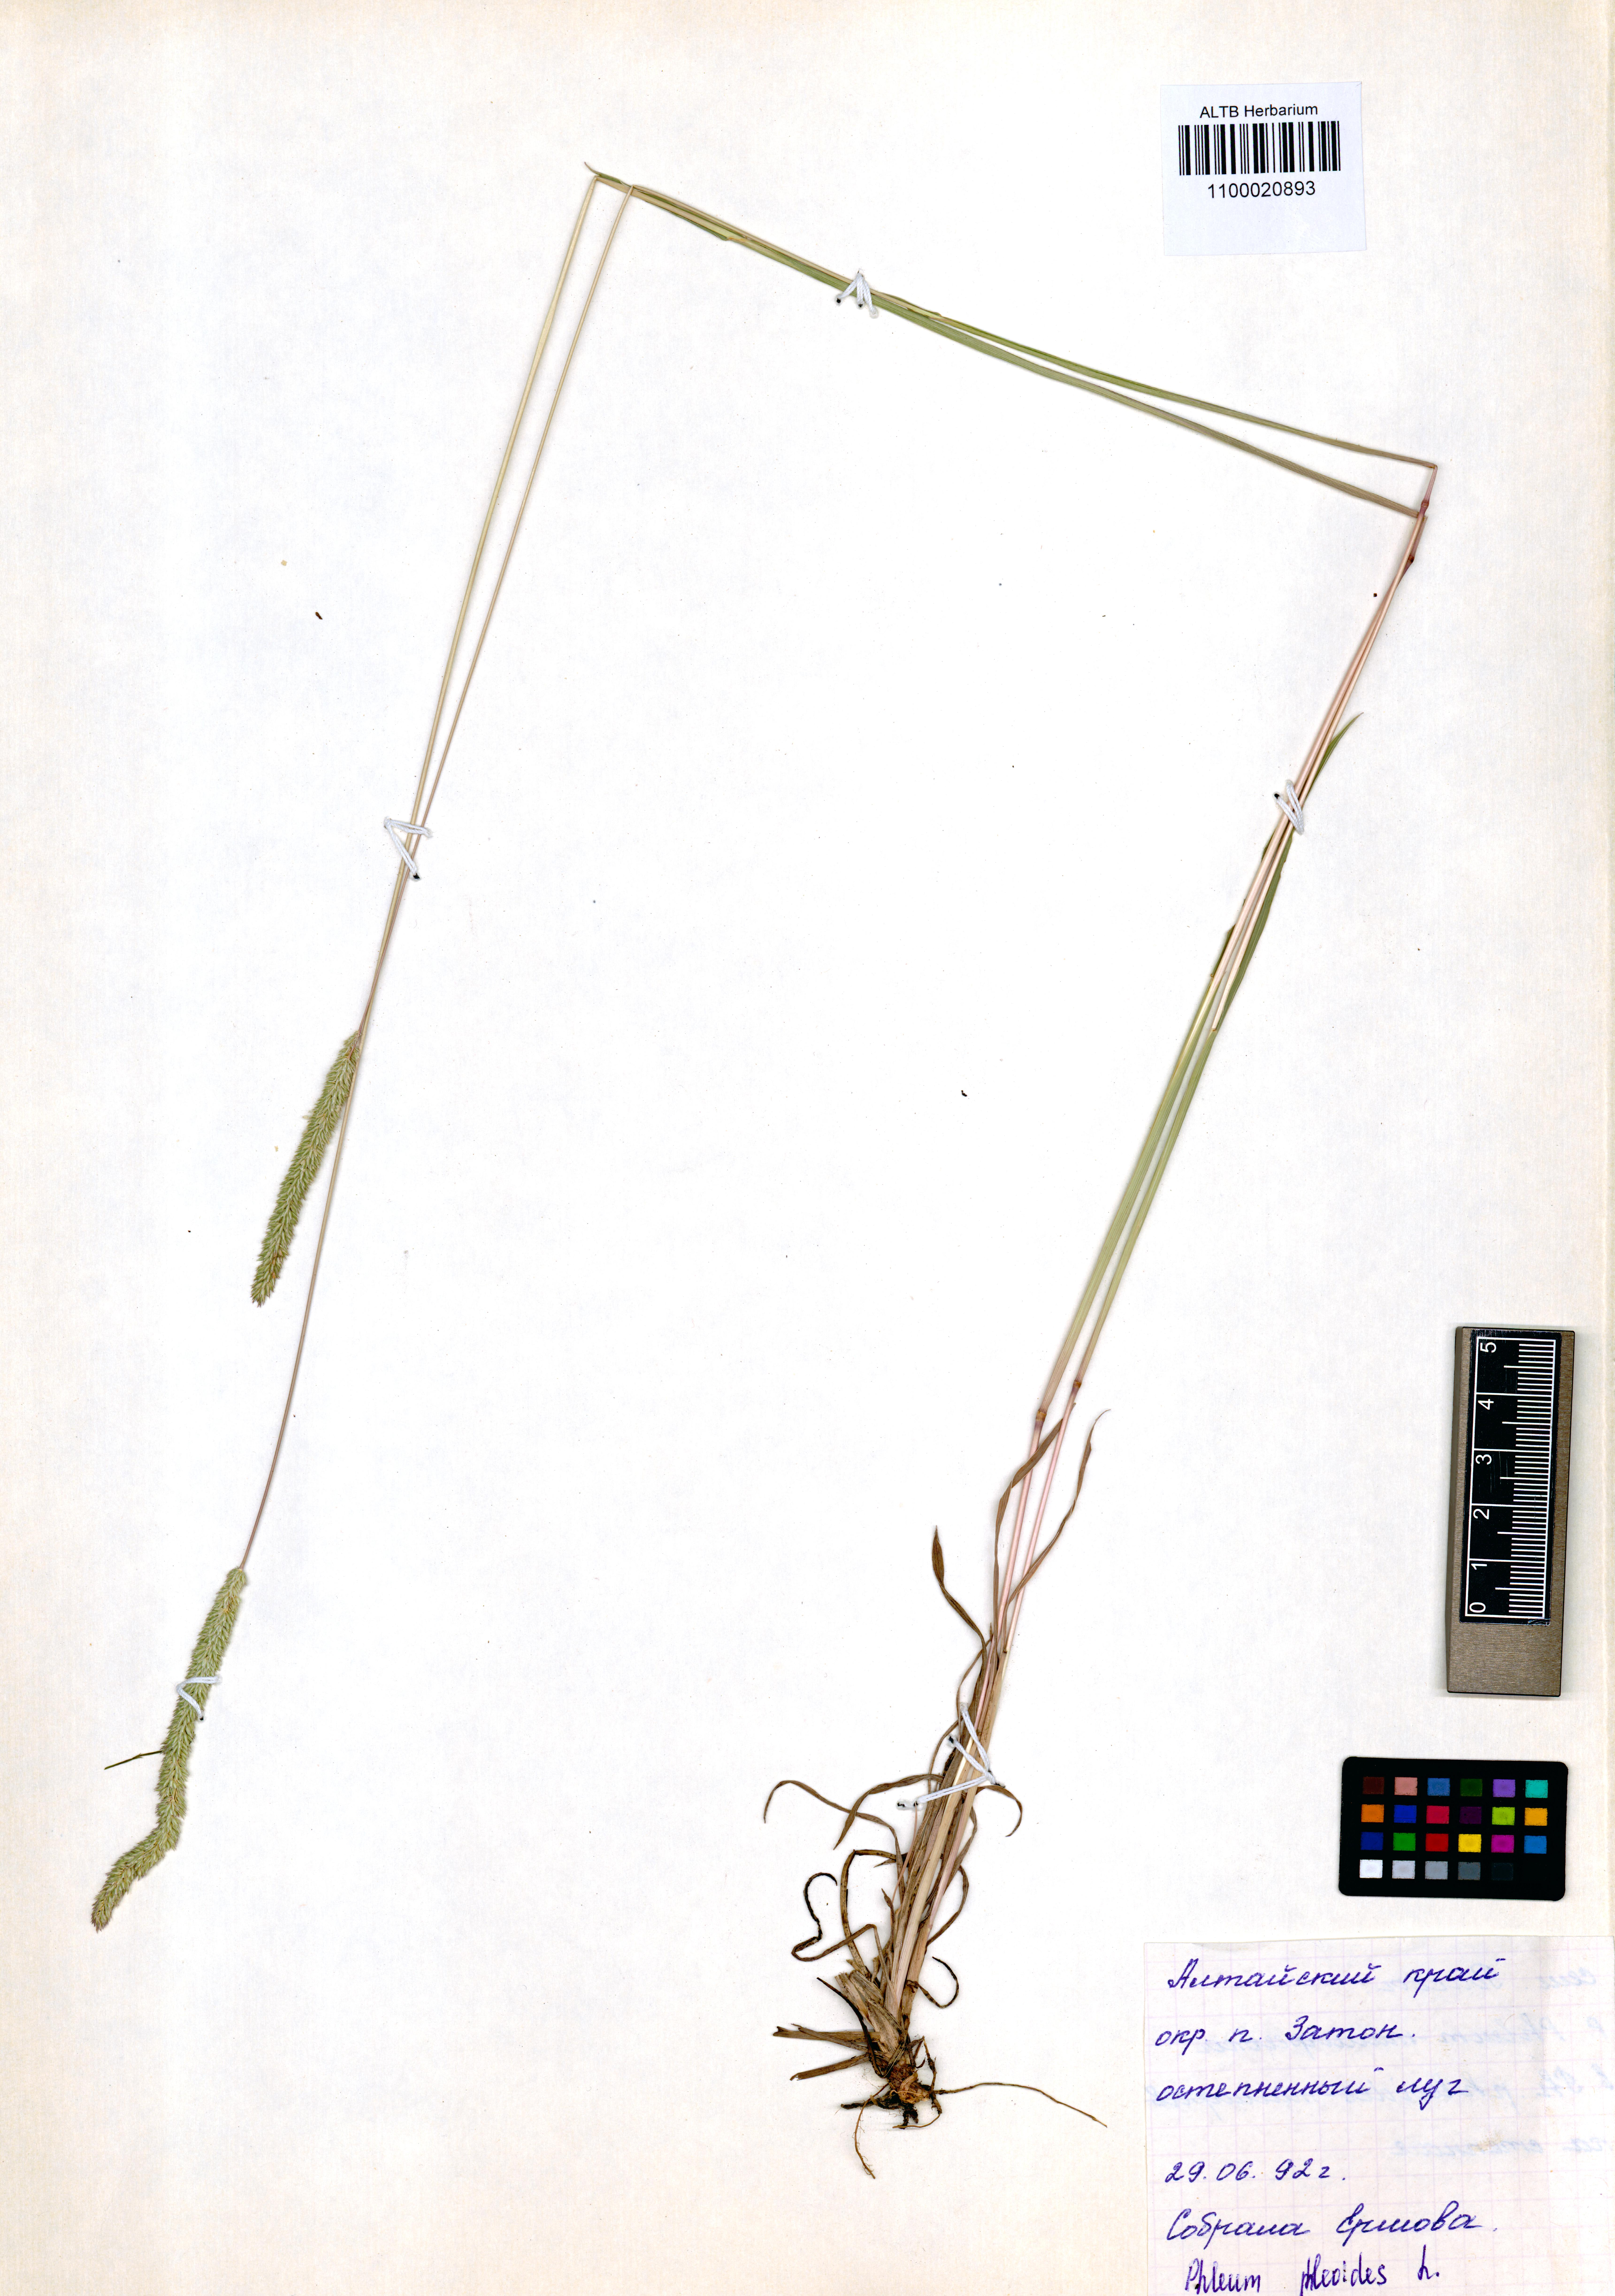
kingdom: Plantae
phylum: Tracheophyta
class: Liliopsida
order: Poales
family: Poaceae
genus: Phleum
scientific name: Phleum phleoides
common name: Purple-stem cat's-tail
